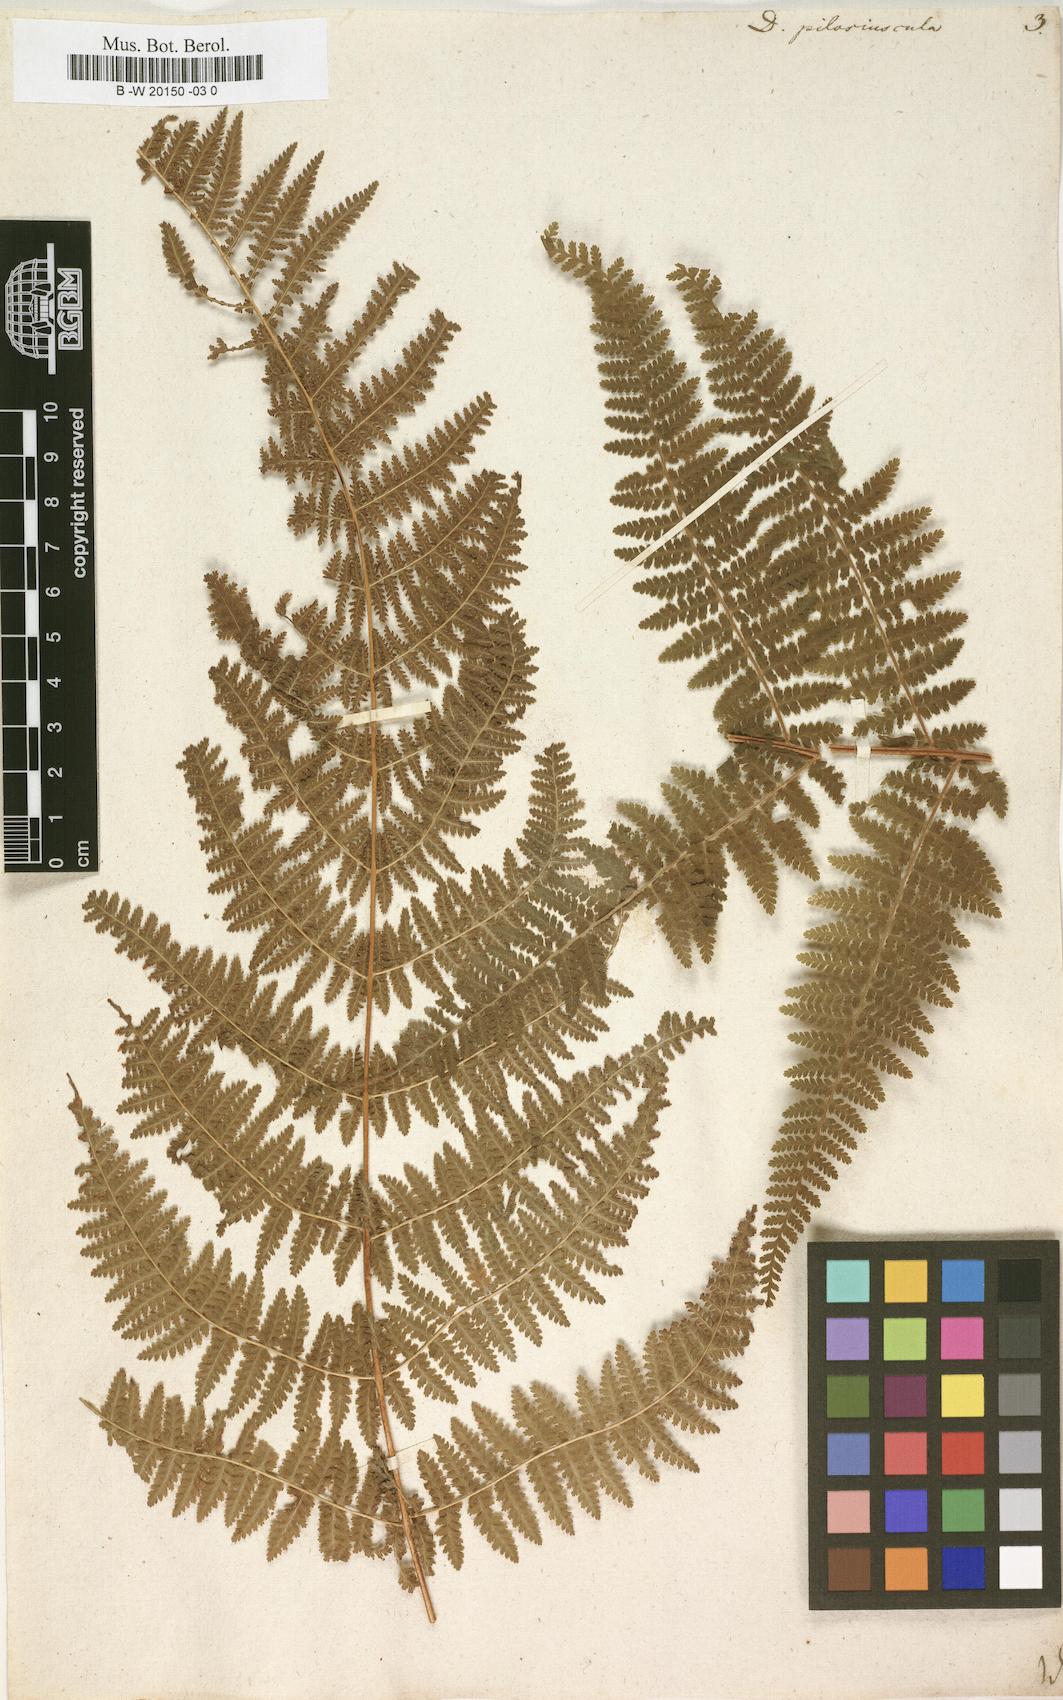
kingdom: Plantae
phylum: Tracheophyta
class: Polypodiopsida
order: Polypodiales
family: Dennstaedtiaceae
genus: Sitobolium
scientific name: Sitobolium punctilobum
